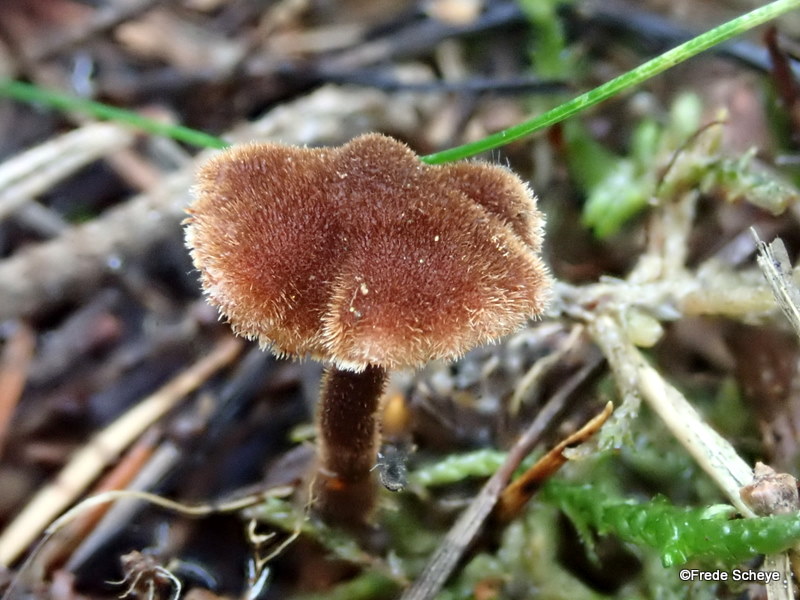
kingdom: Fungi
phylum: Basidiomycota
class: Agaricomycetes
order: Russulales
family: Auriscalpiaceae
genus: Auriscalpium
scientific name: Auriscalpium vulgare
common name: koglepigsvamp
